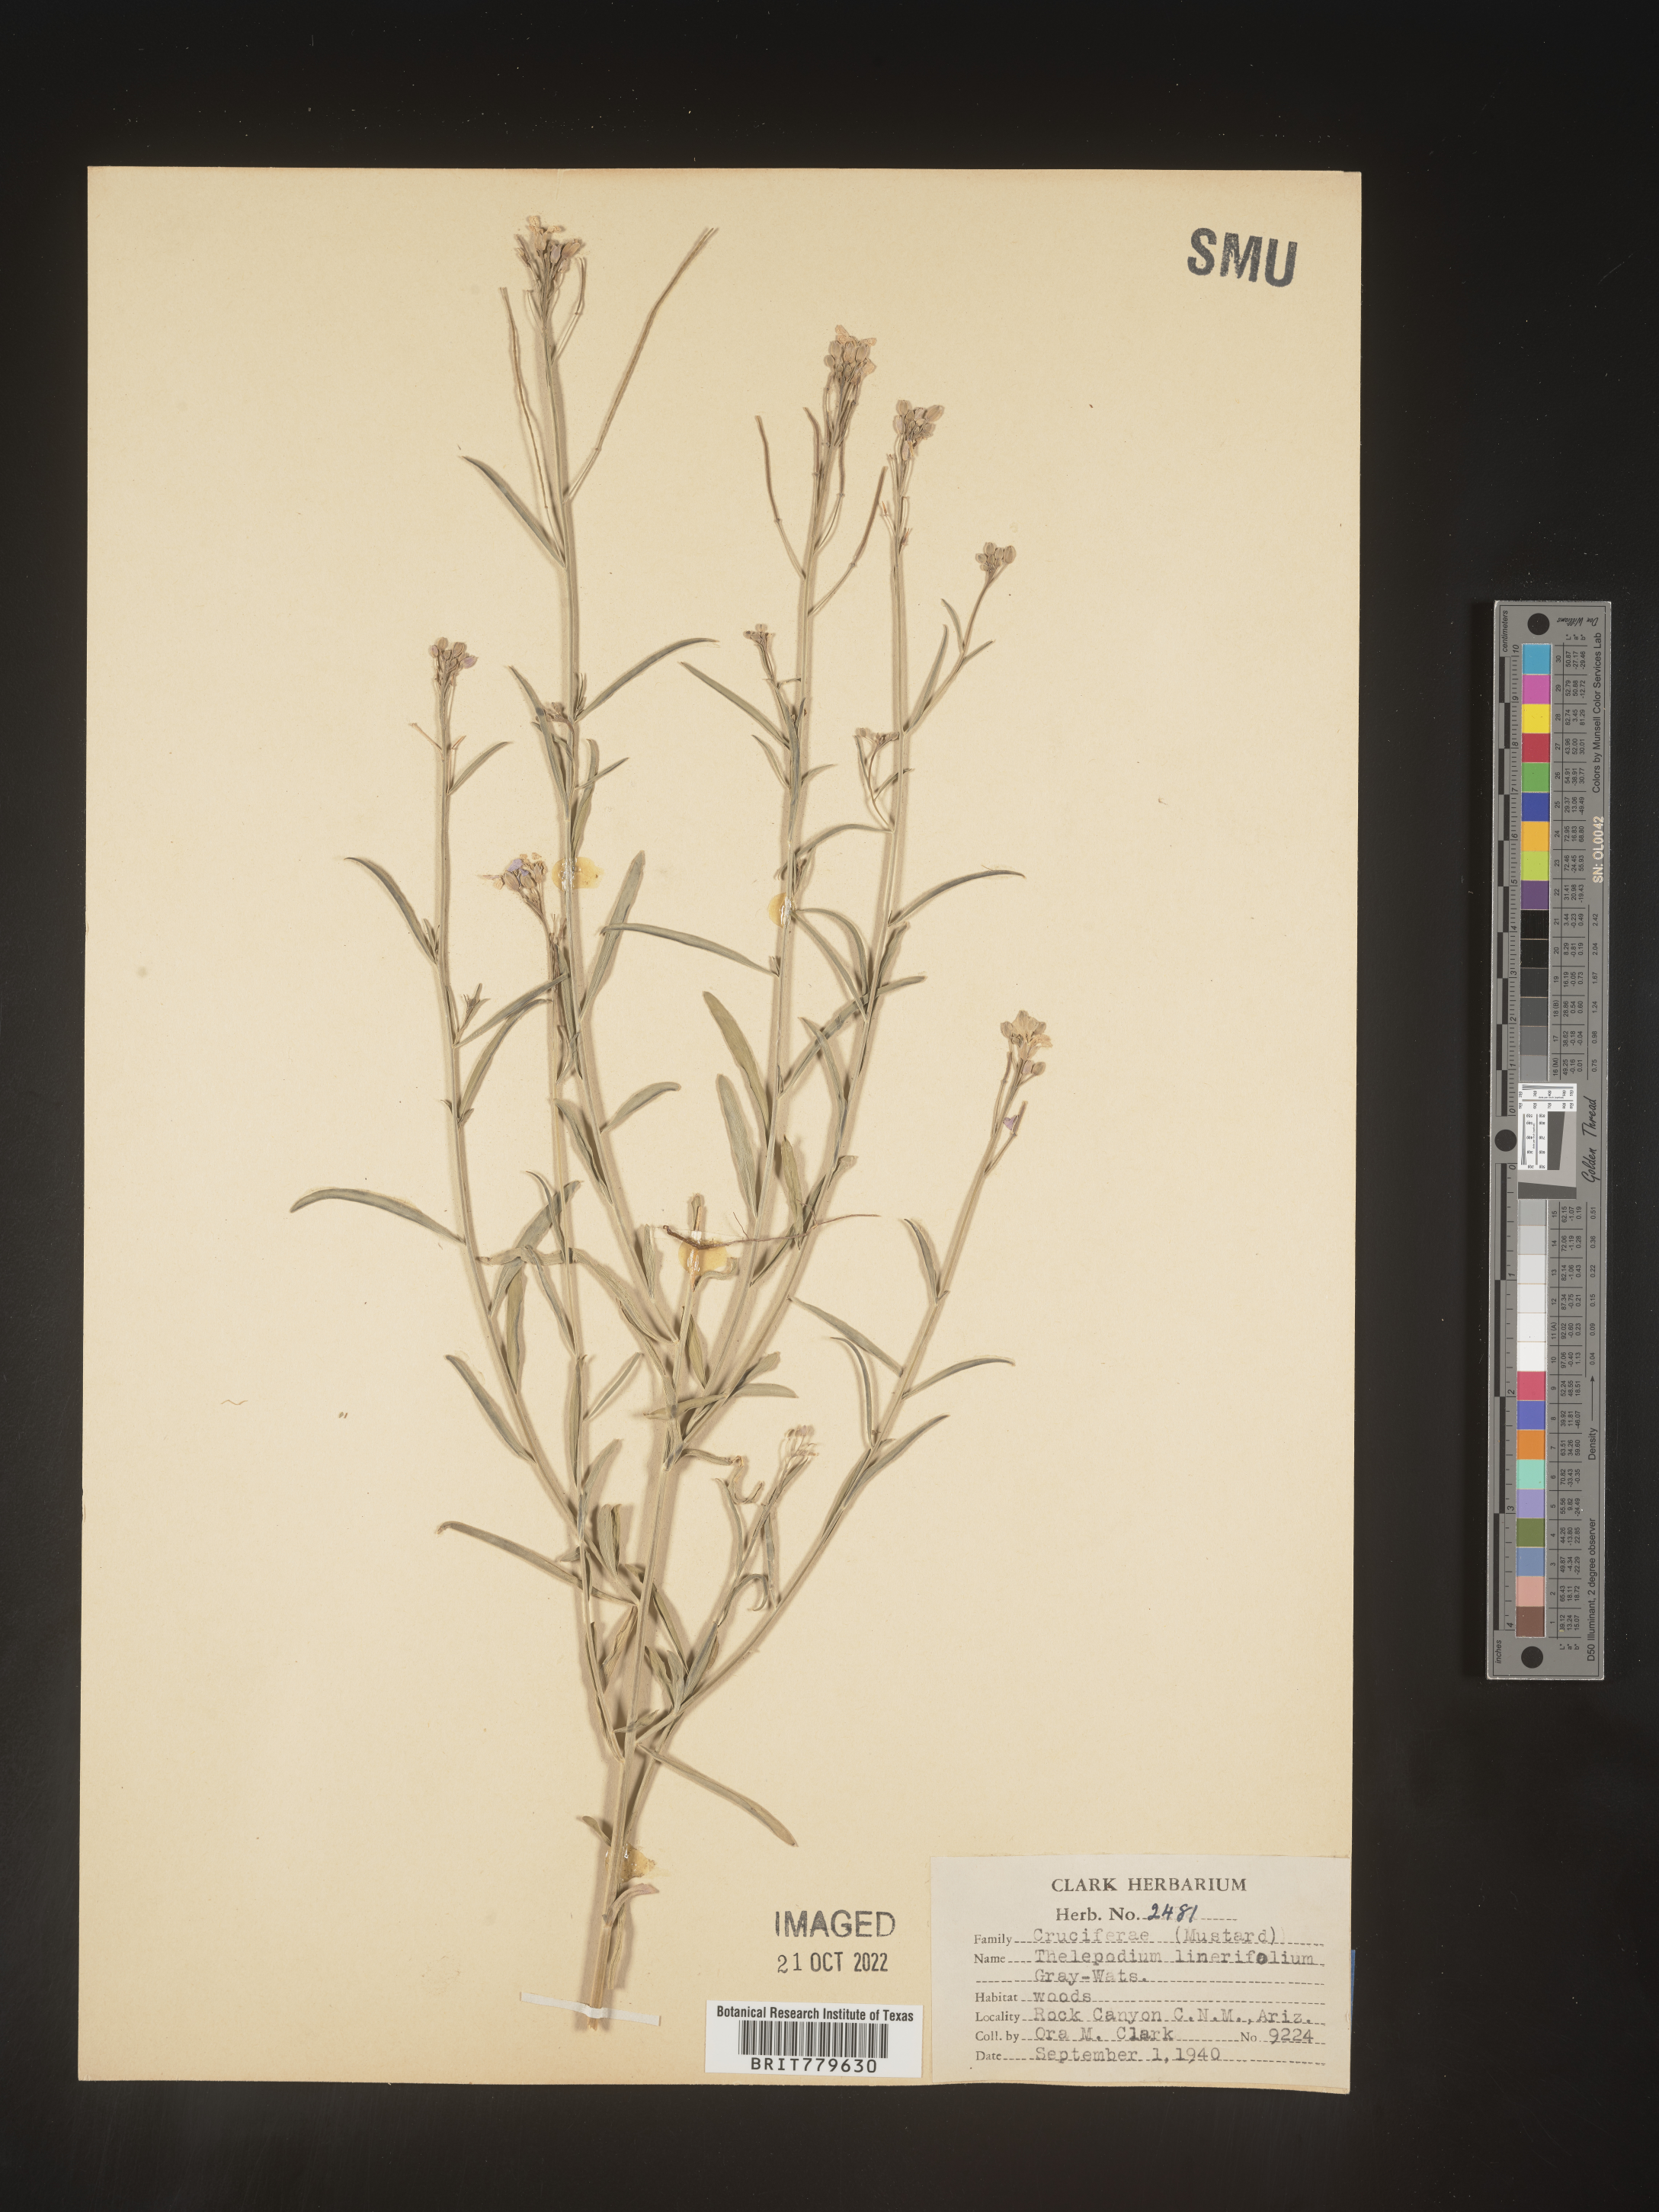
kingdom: Plantae
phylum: Tracheophyta
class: Magnoliopsida
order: Brassicales
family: Brassicaceae
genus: Thelypodium
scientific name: Thelypodium
